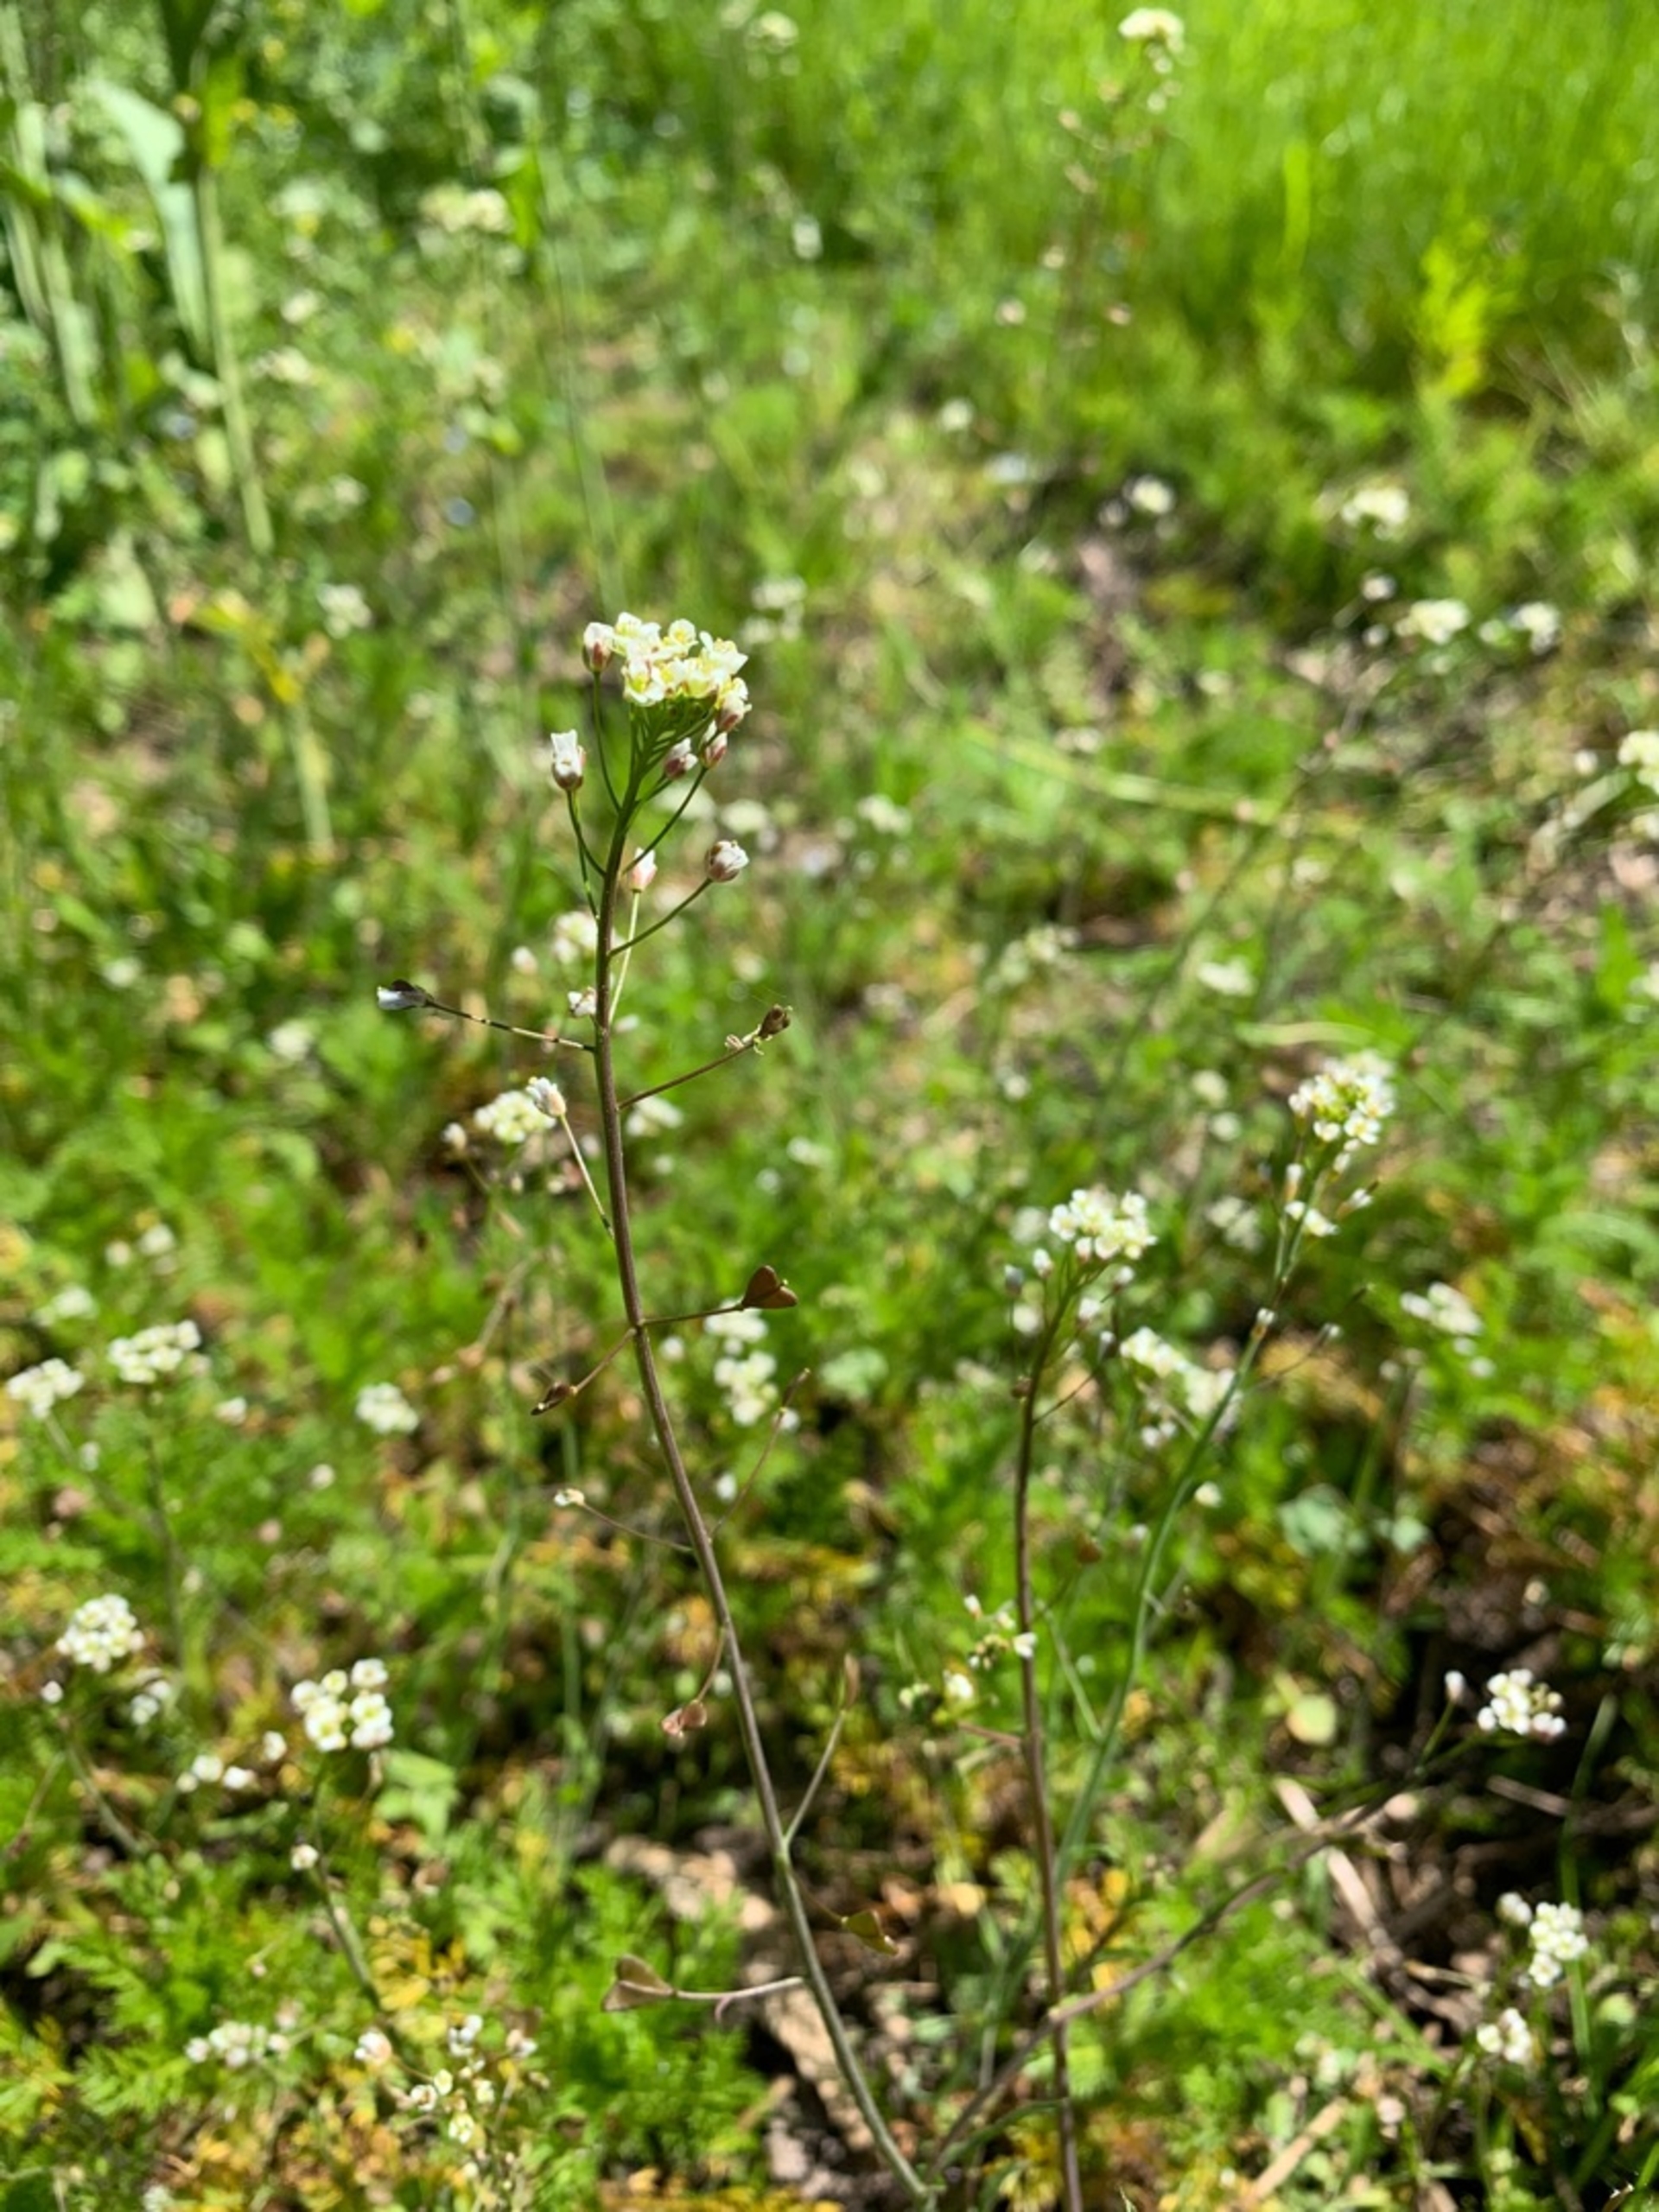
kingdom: Plantae
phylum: Tracheophyta
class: Magnoliopsida
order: Brassicales
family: Brassicaceae
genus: Capsella
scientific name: Capsella bursa-pastoris
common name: Hyrdetaske
